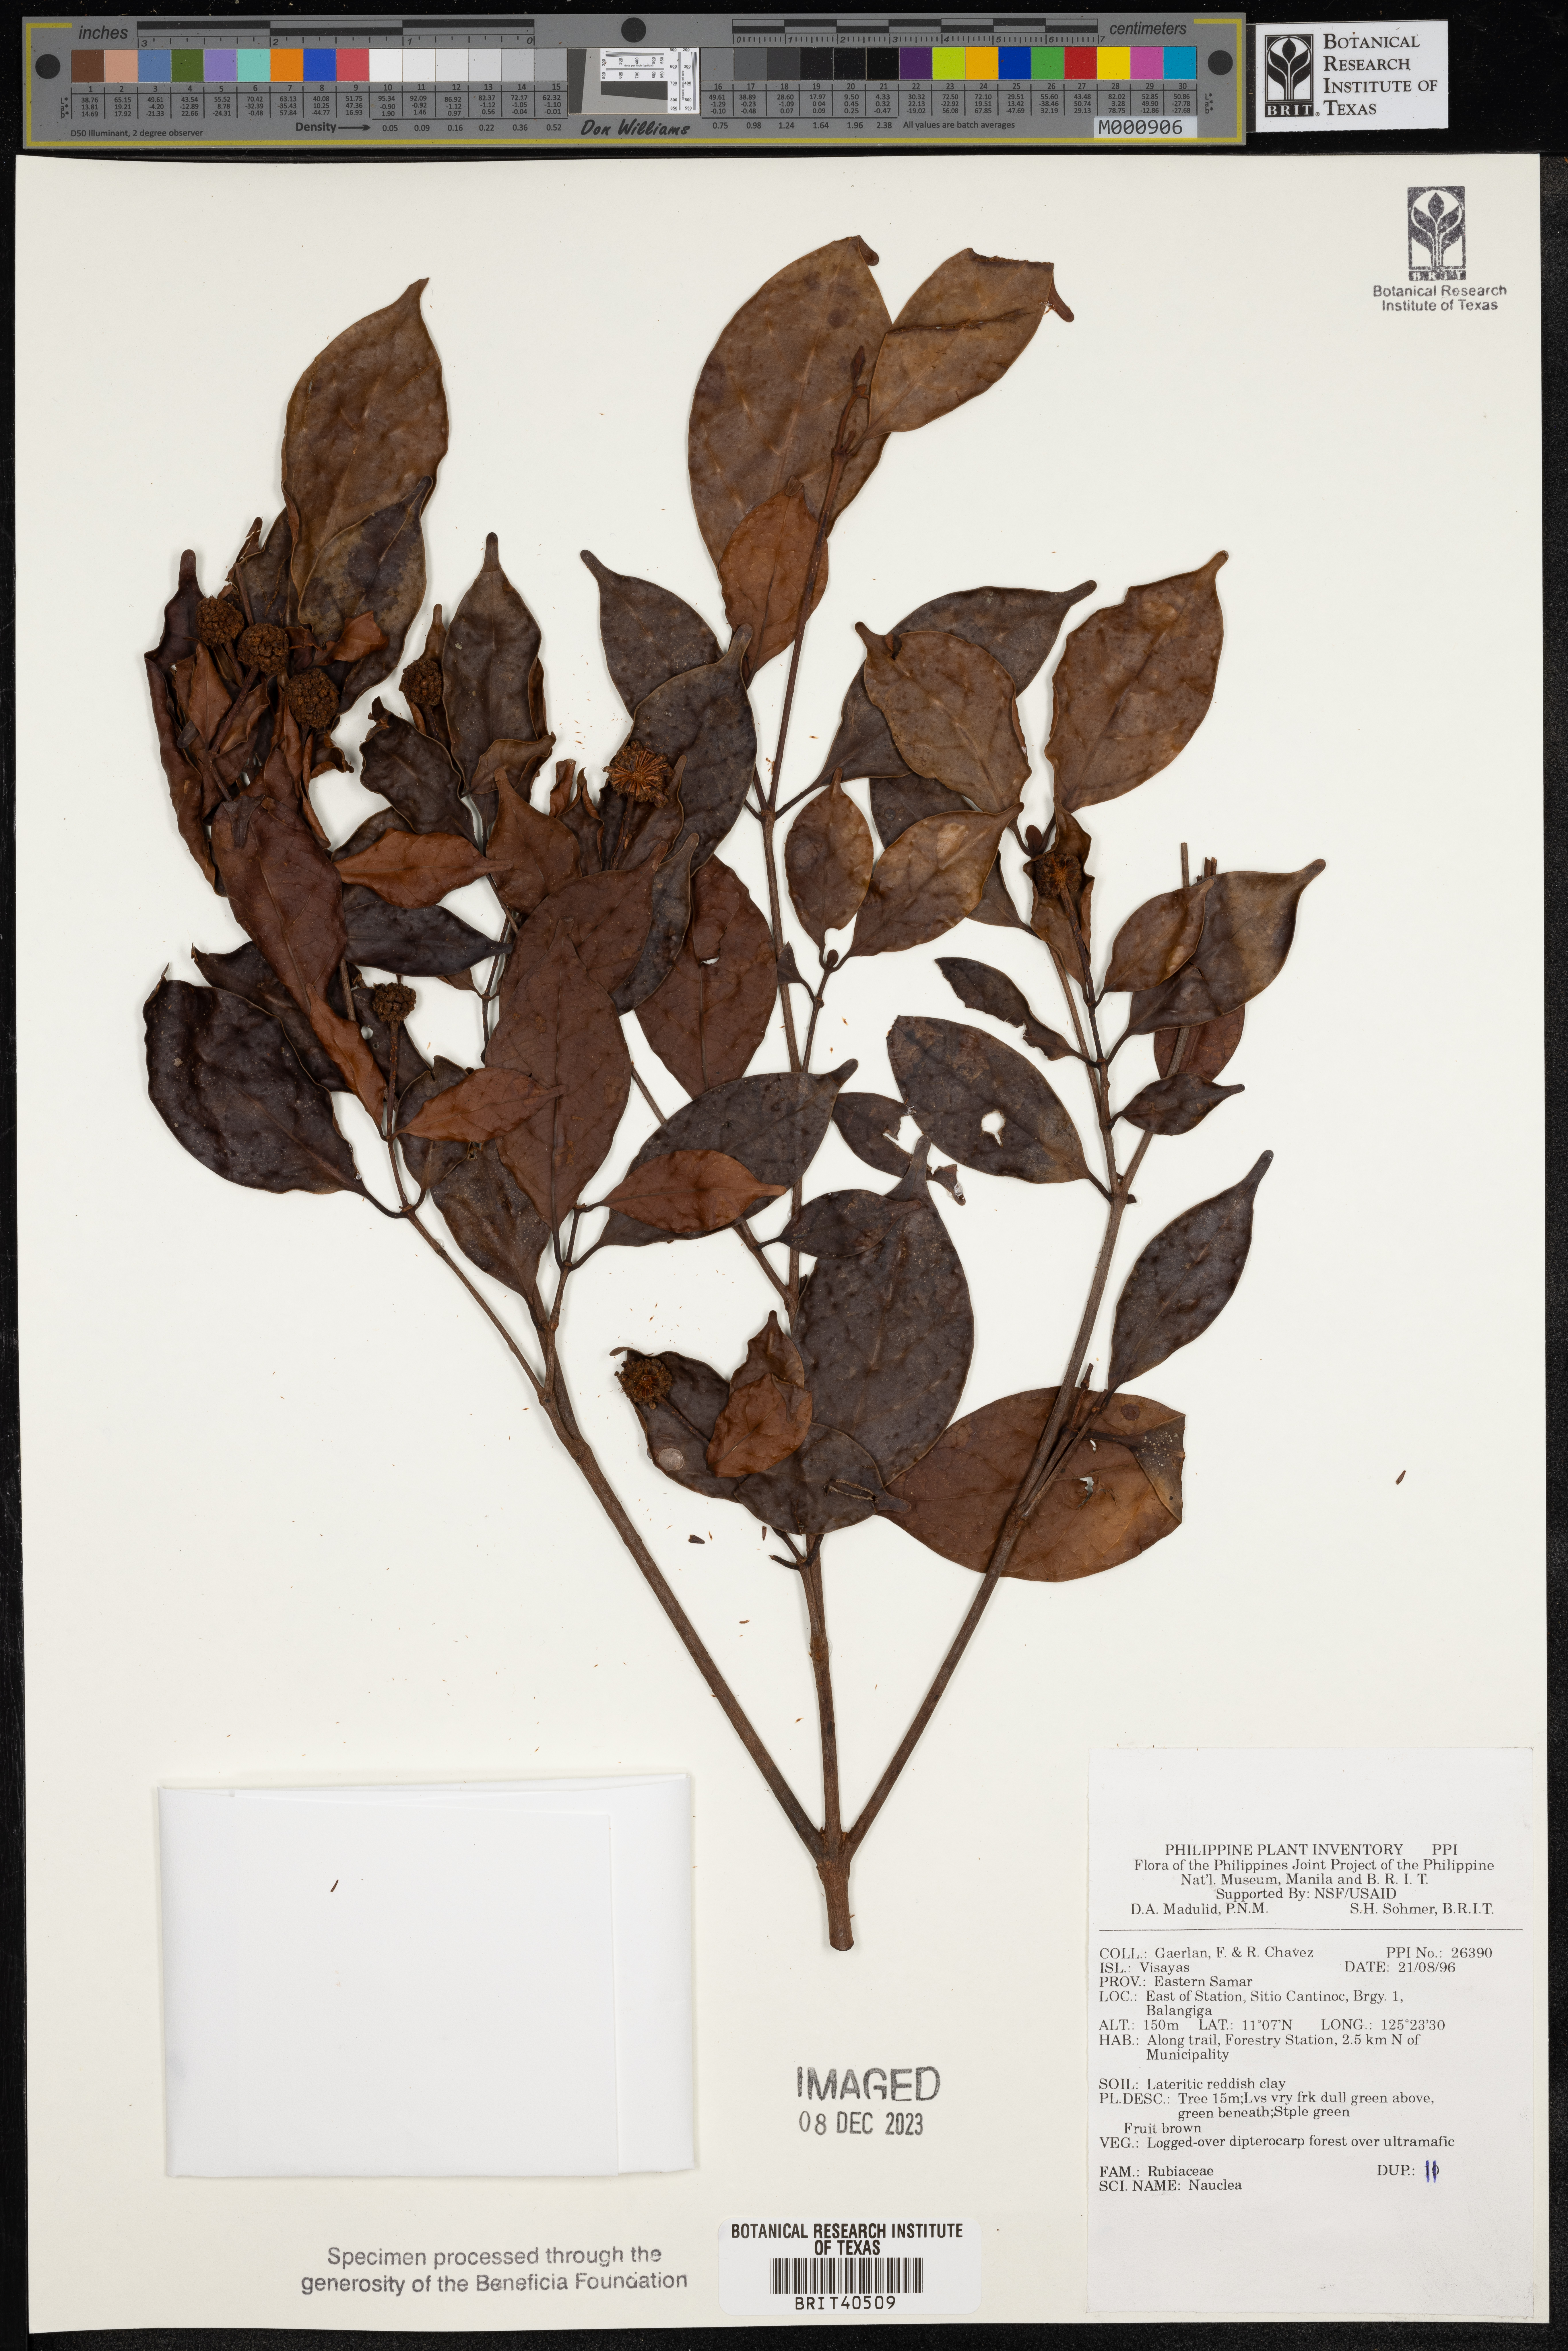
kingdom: Plantae
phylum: Tracheophyta
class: Magnoliopsida
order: Gentianales
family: Rubiaceae
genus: Nauclea
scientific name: Nauclea
